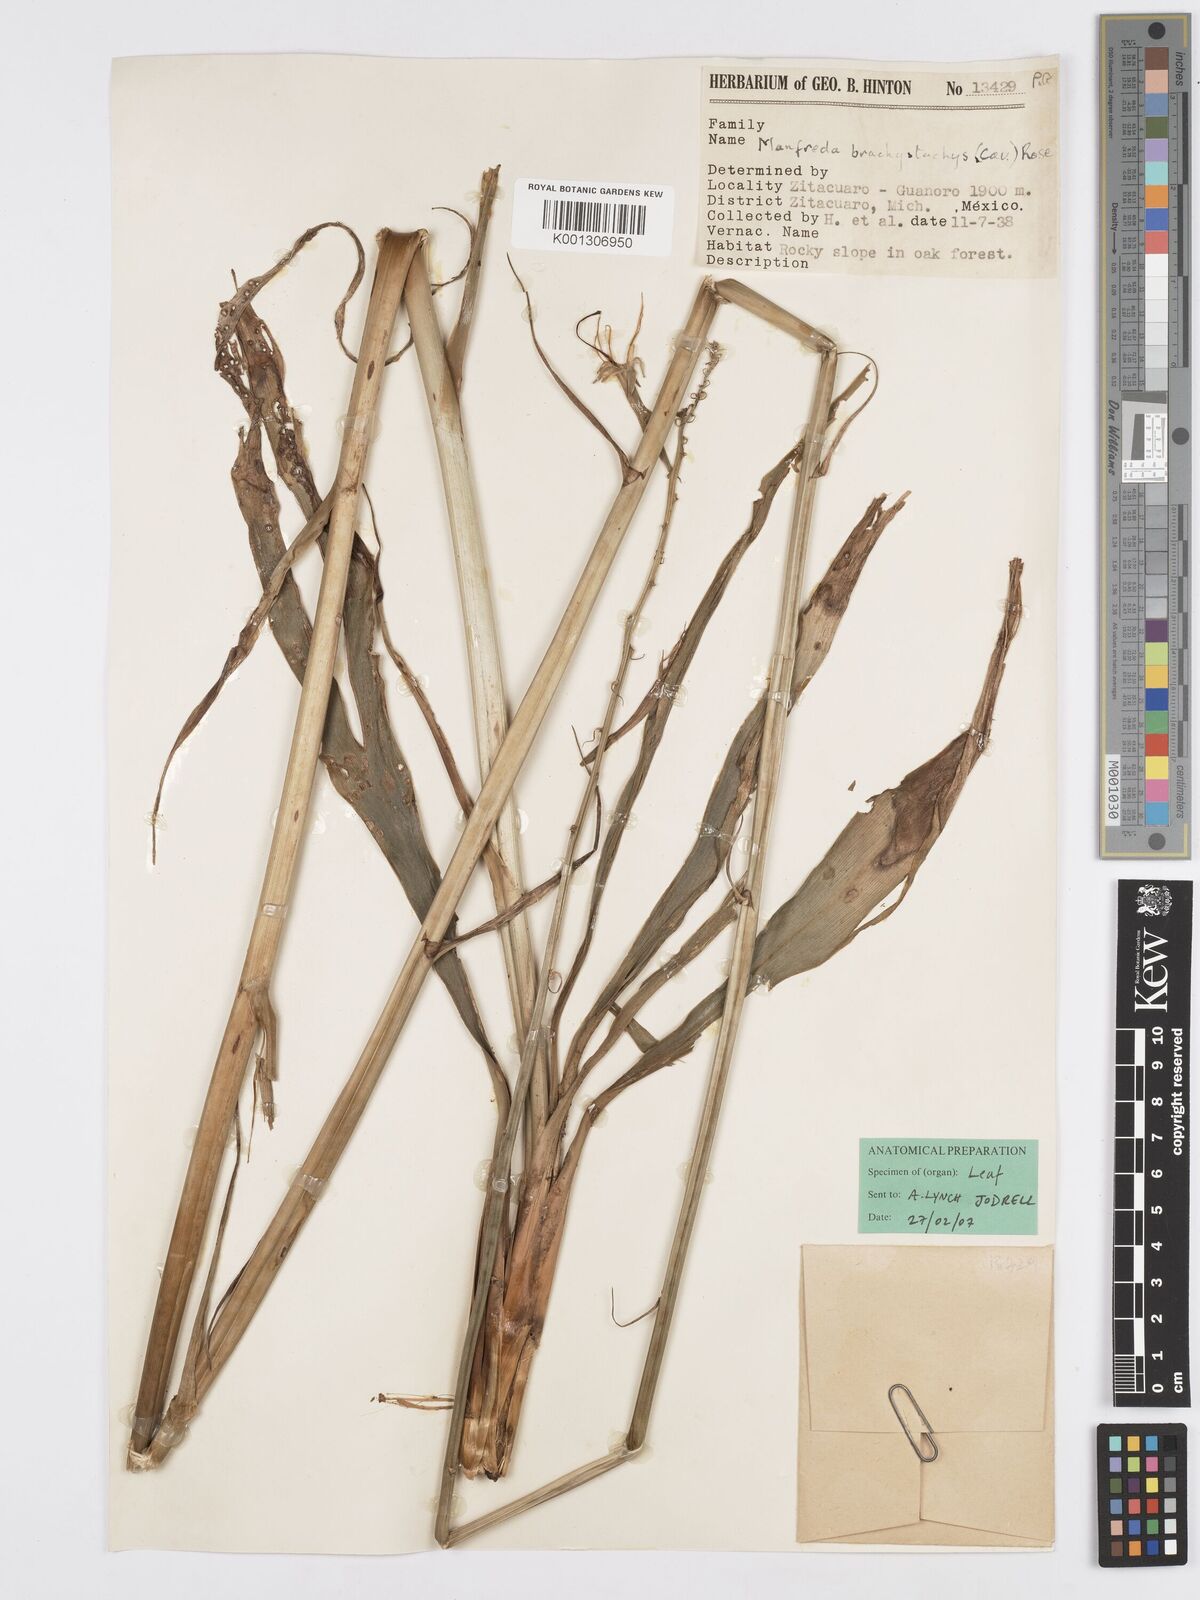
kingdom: Plantae
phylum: Tracheophyta
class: Liliopsida
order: Asparagales
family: Asparagaceae
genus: Agave
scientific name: Agave scabra
